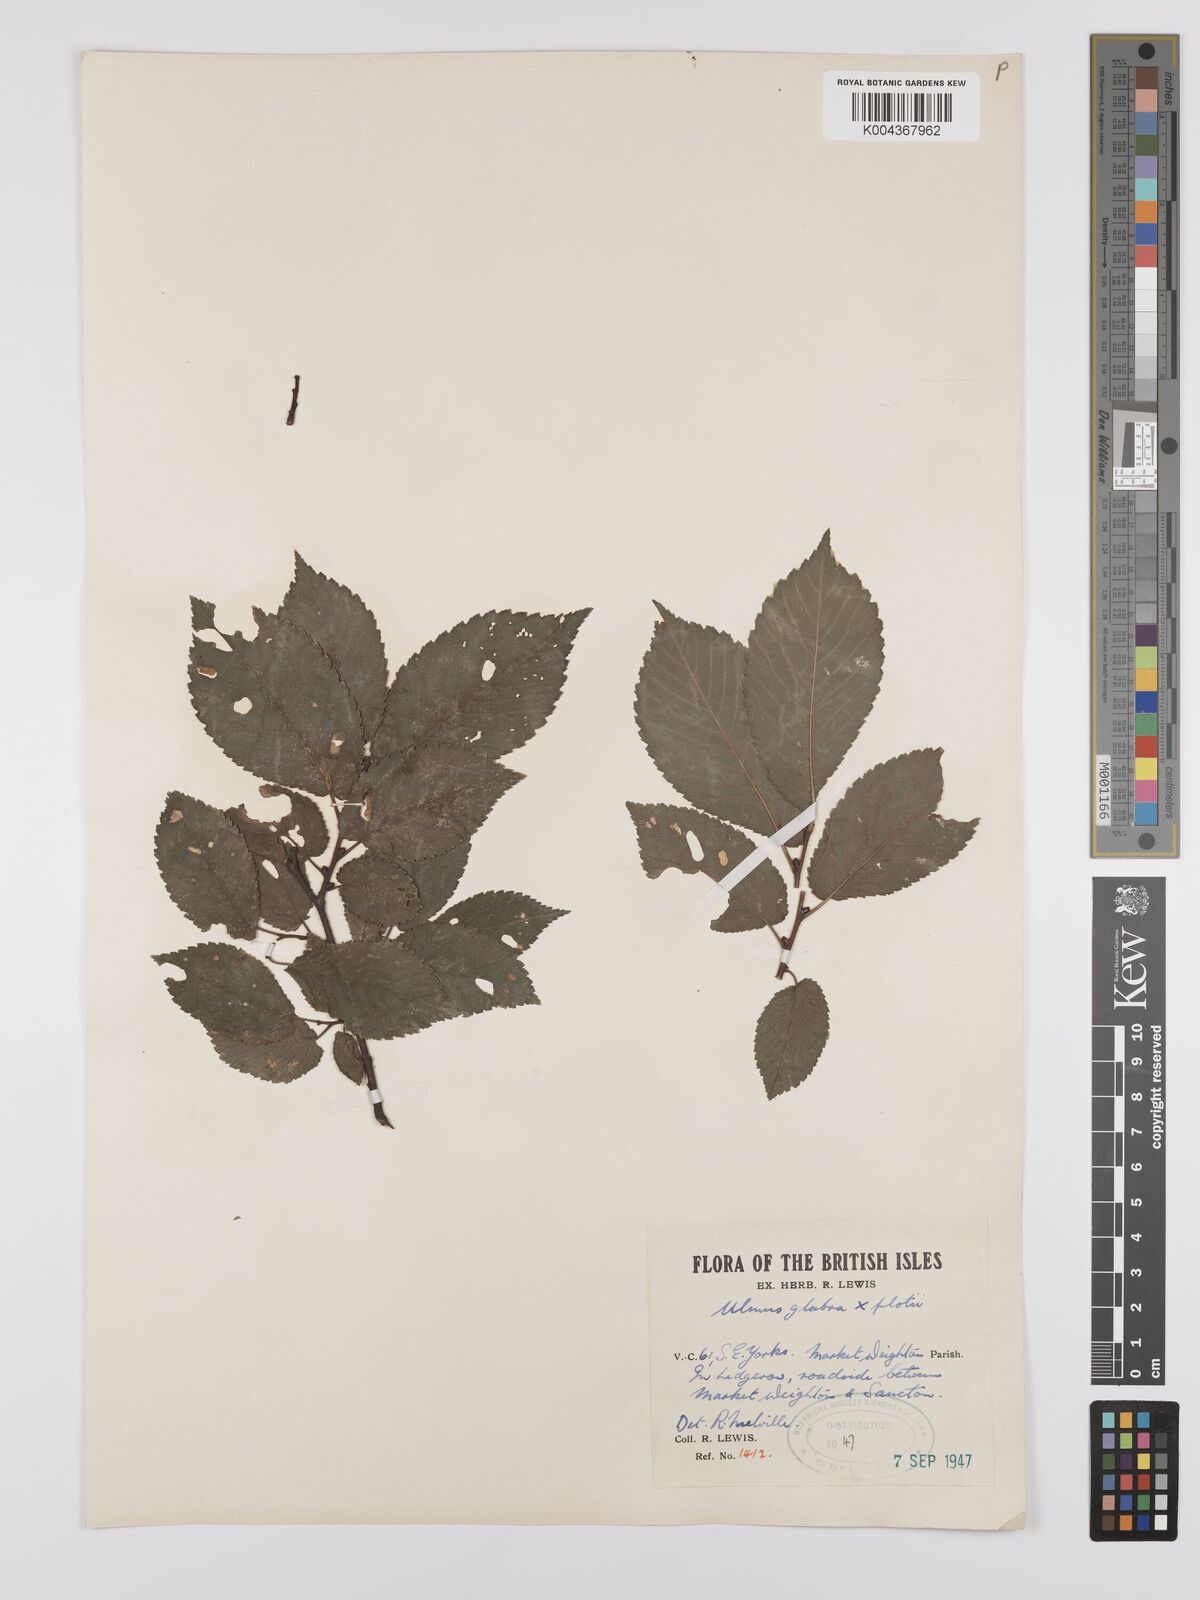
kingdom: Plantae
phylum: Tracheophyta
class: Magnoliopsida
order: Rosales
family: Ulmaceae
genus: Ulmus
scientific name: Ulmus glabra
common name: Wych elm
